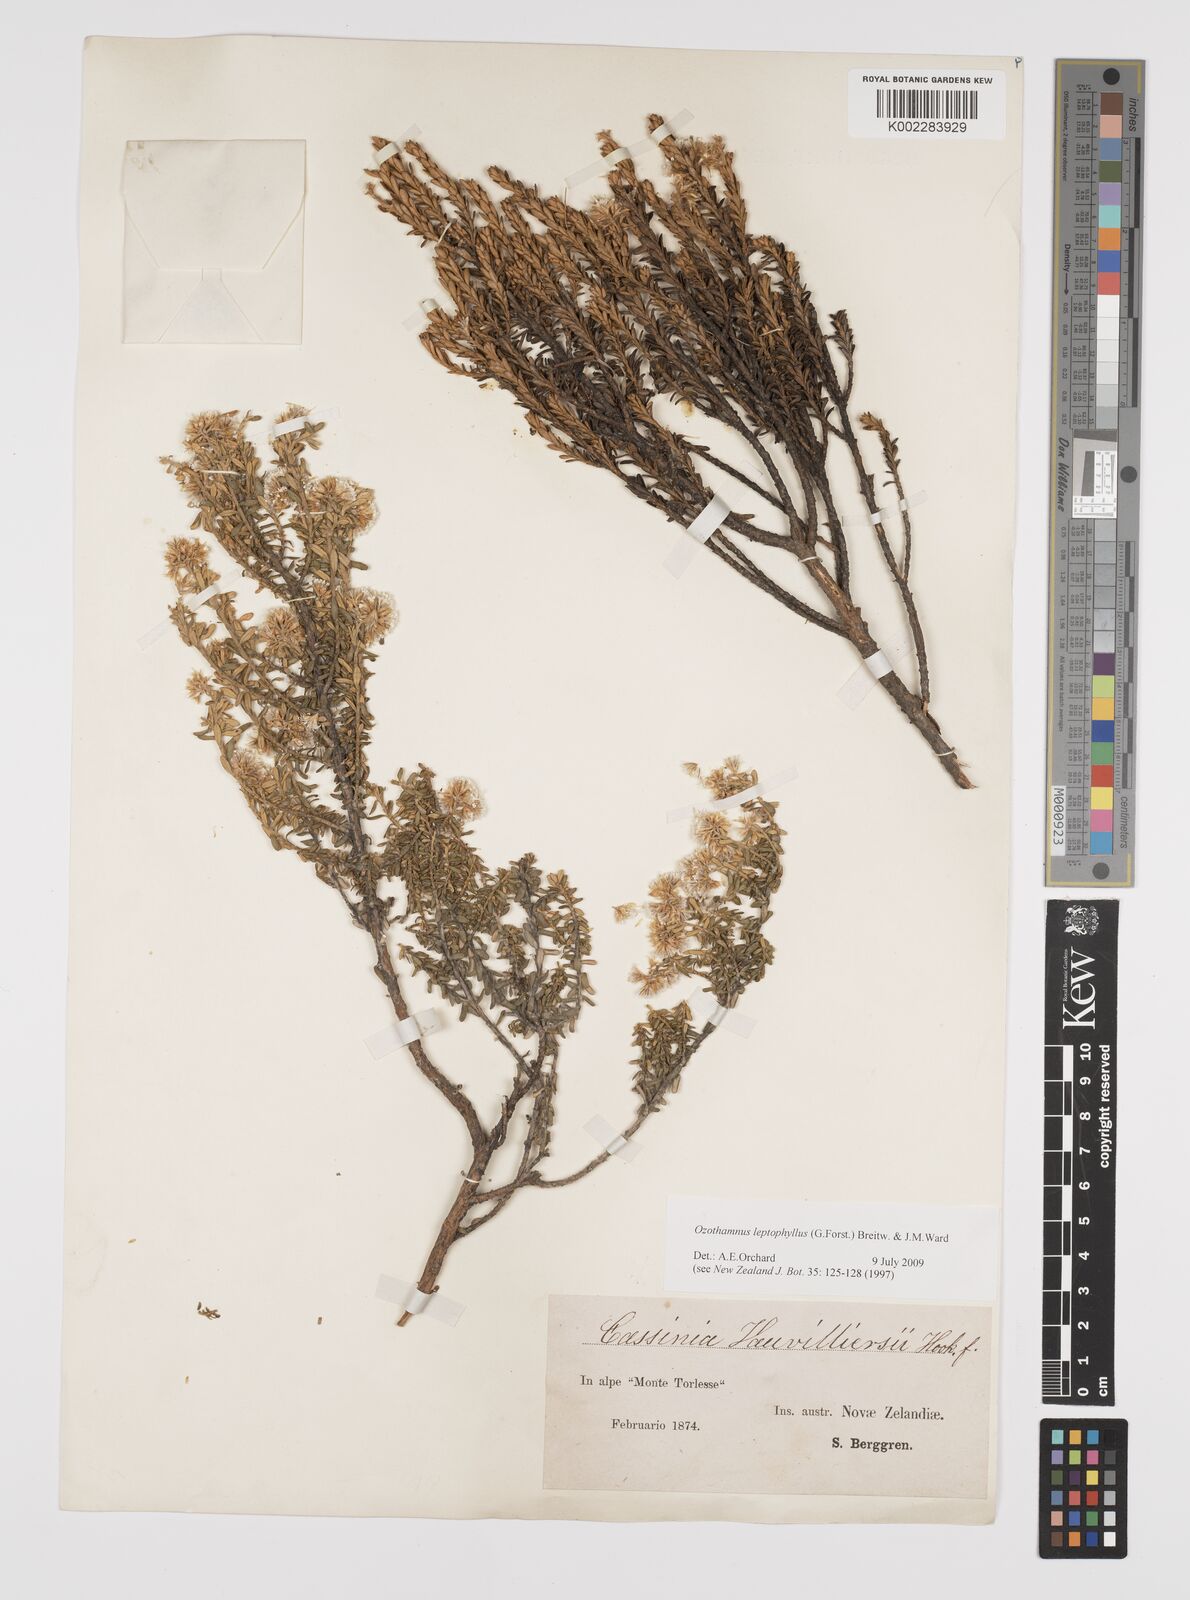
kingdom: Plantae
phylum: Tracheophyta
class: Magnoliopsida
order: Asterales
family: Asteraceae
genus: Ozothamnus
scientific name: Ozothamnus leptophyllus
